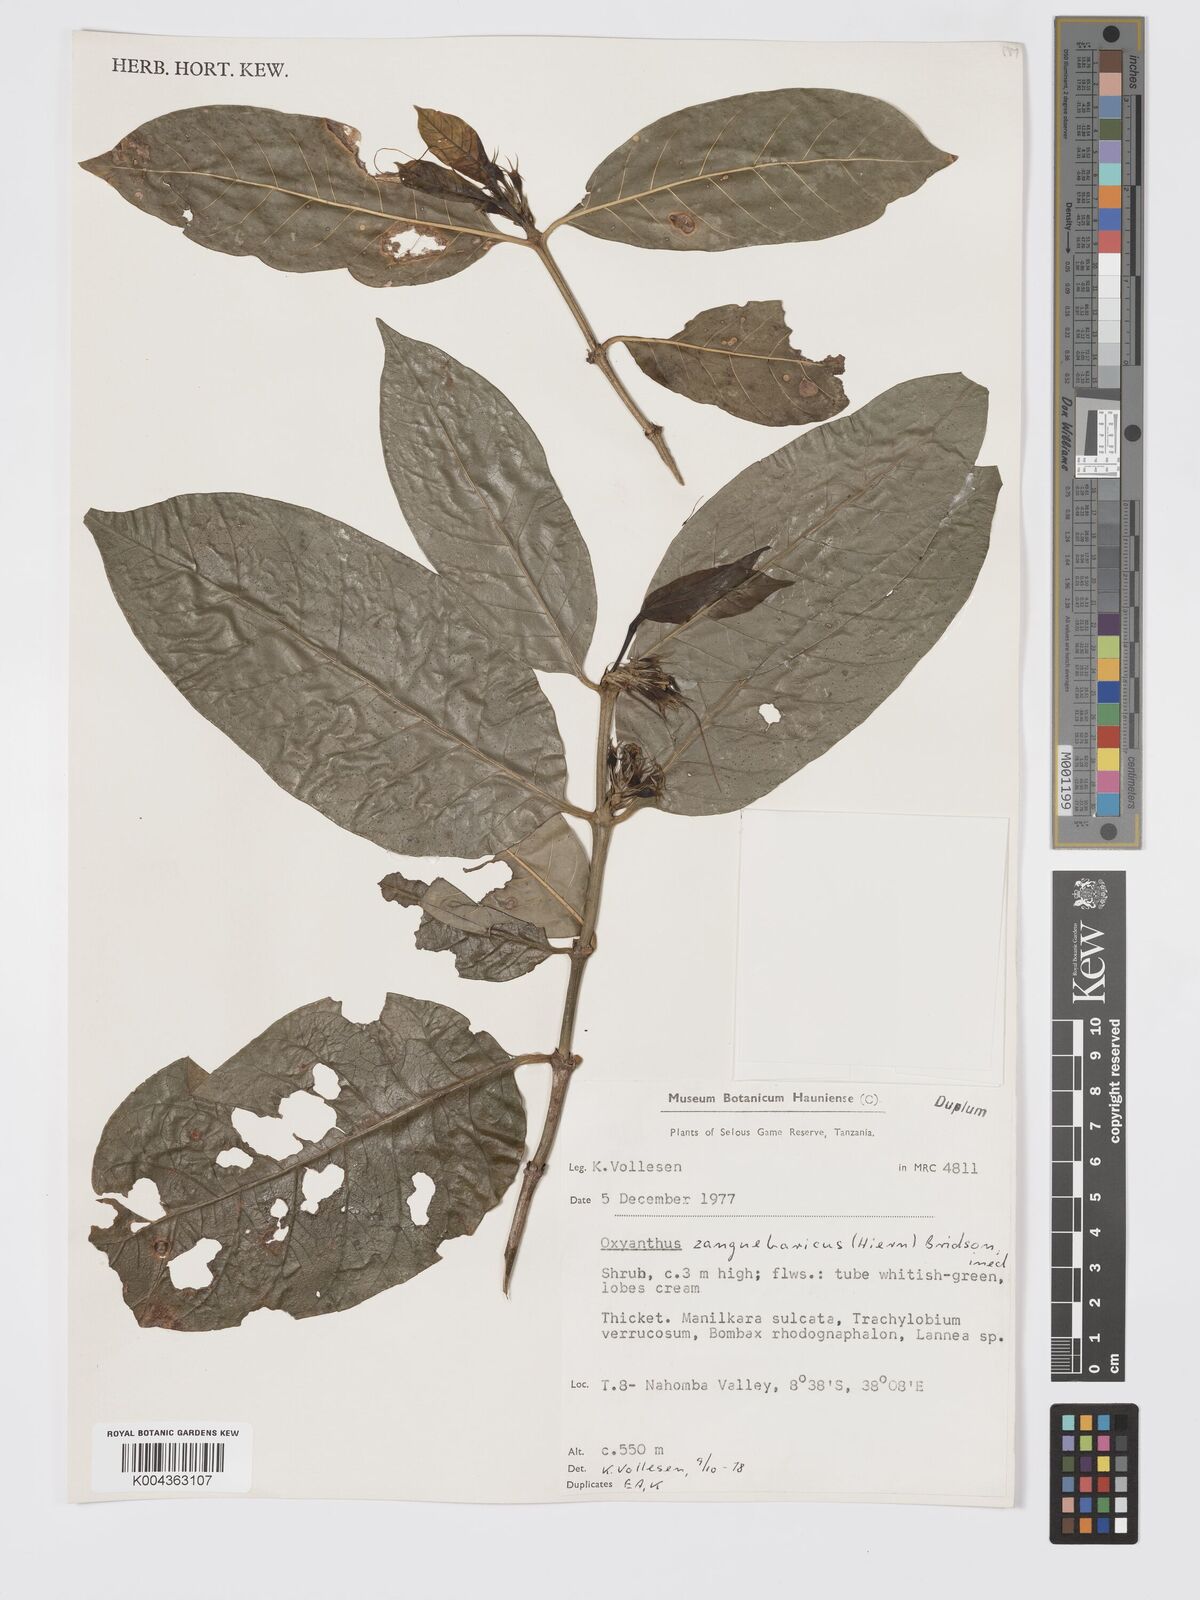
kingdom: Plantae
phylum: Tracheophyta
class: Magnoliopsida
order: Gentianales
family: Rubiaceae
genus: Oxyanthus
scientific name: Oxyanthus zanguebaricus
